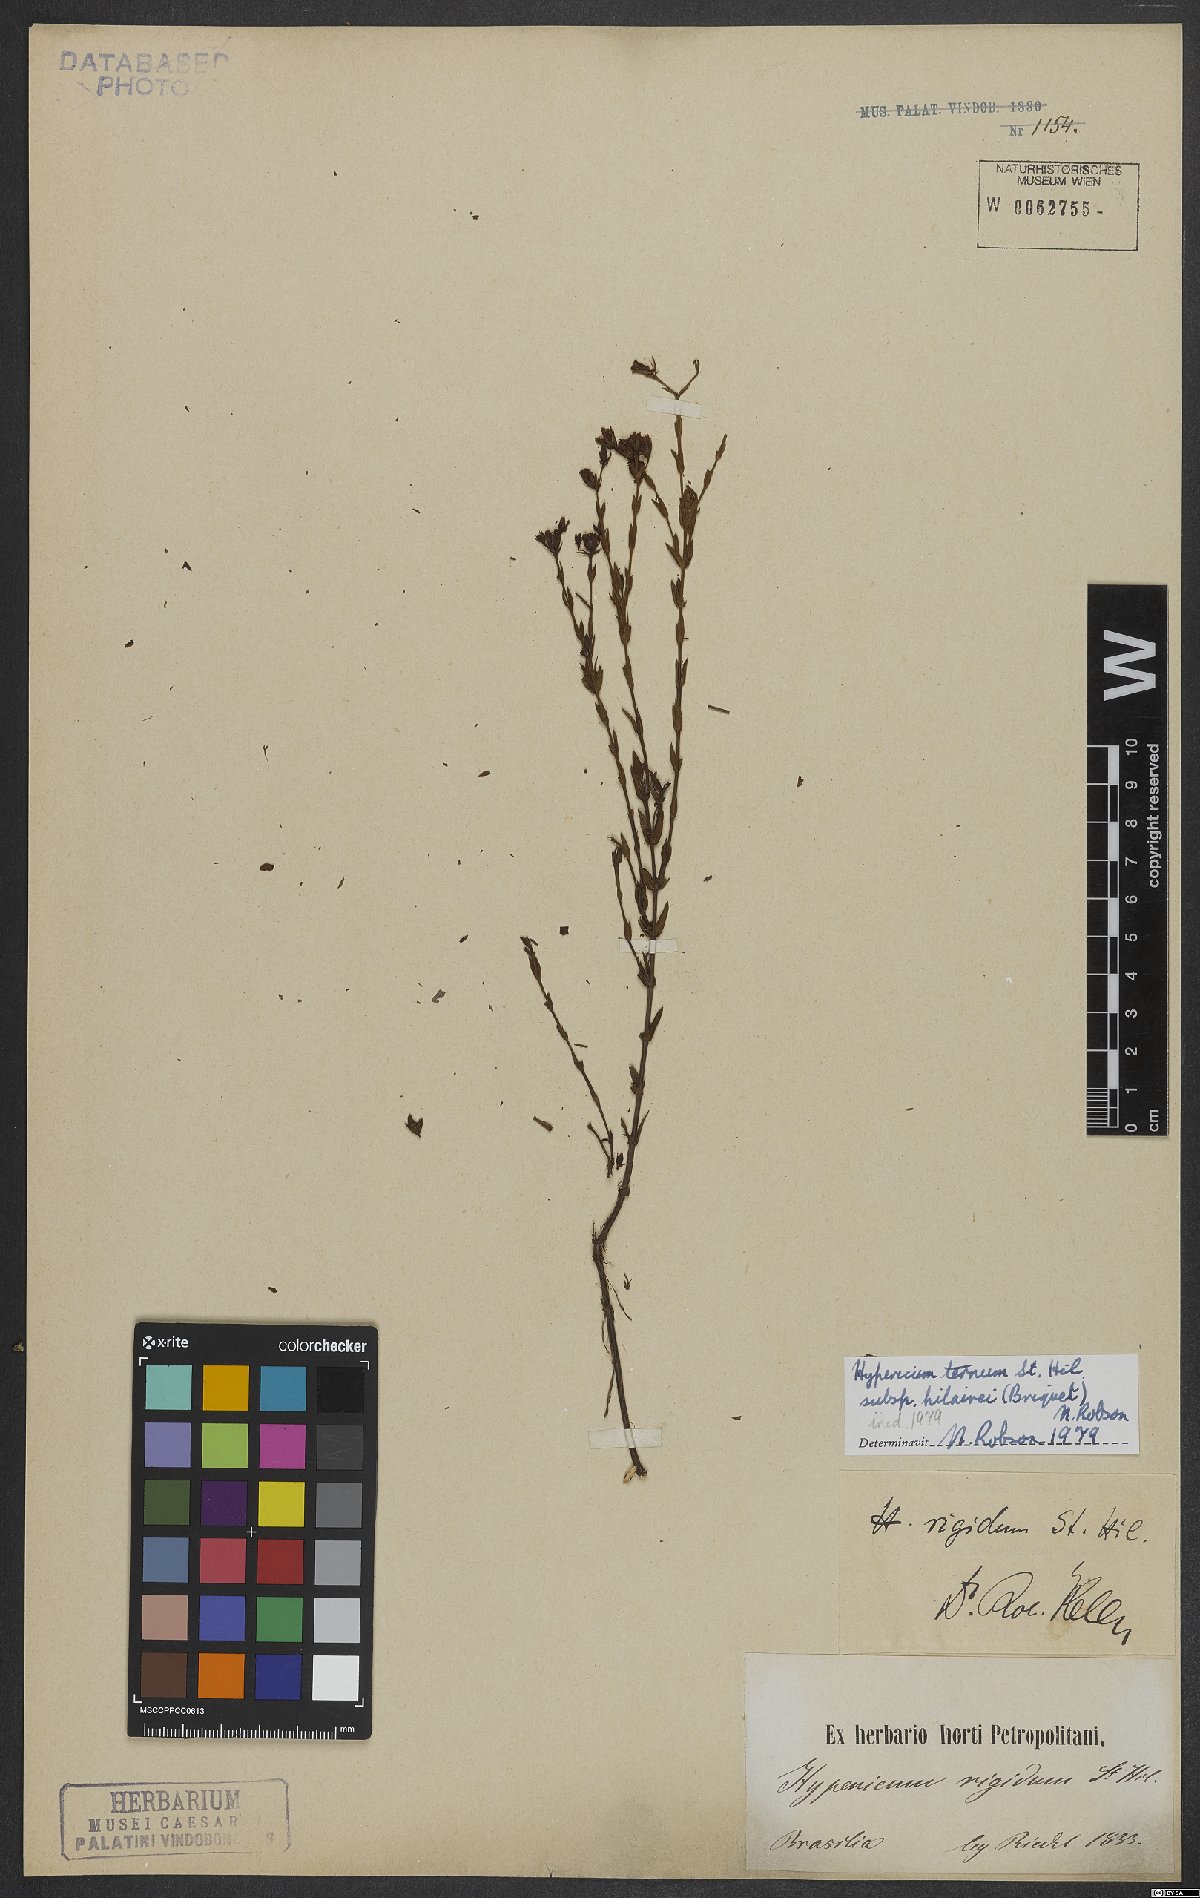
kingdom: Plantae
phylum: Tracheophyta
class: Magnoliopsida
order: Malpighiales
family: Hypericaceae
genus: Hypericum
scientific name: Hypericum ternum
